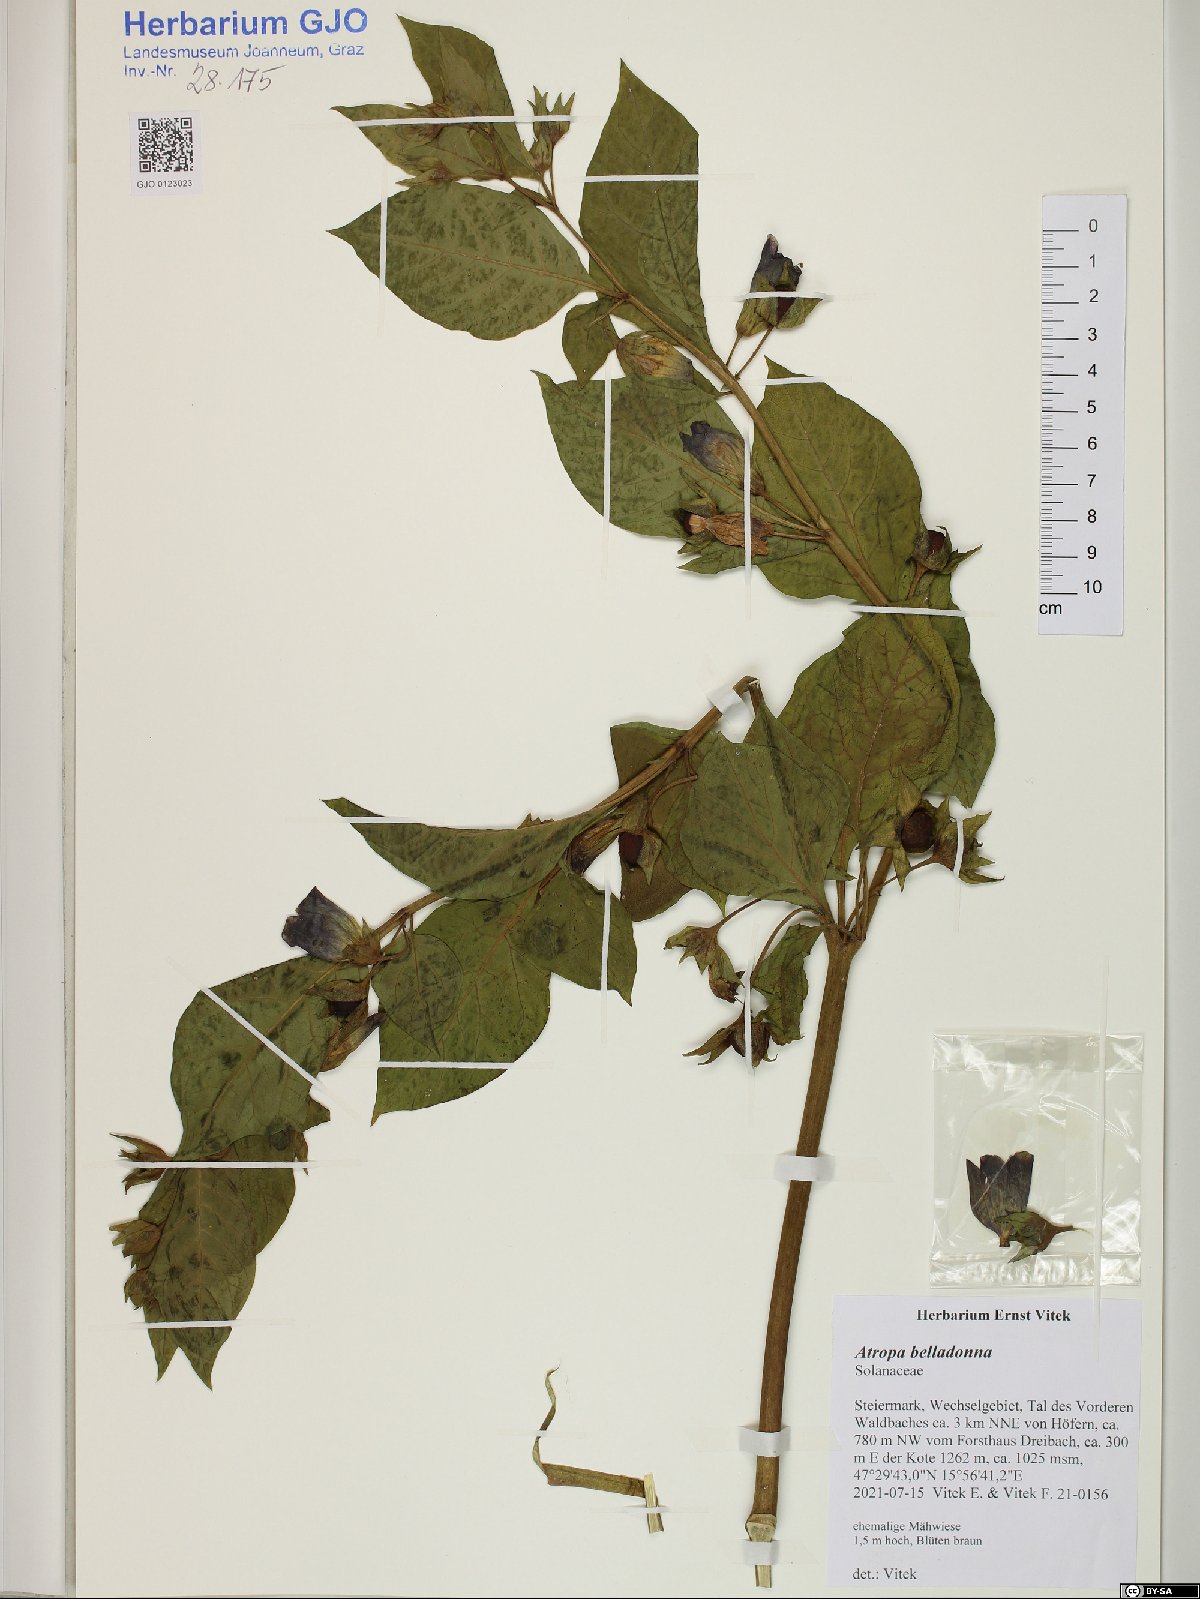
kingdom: Plantae
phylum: Tracheophyta
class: Magnoliopsida
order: Solanales
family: Solanaceae
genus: Atropa
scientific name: Atropa belladonna
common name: Deadly nightshade
